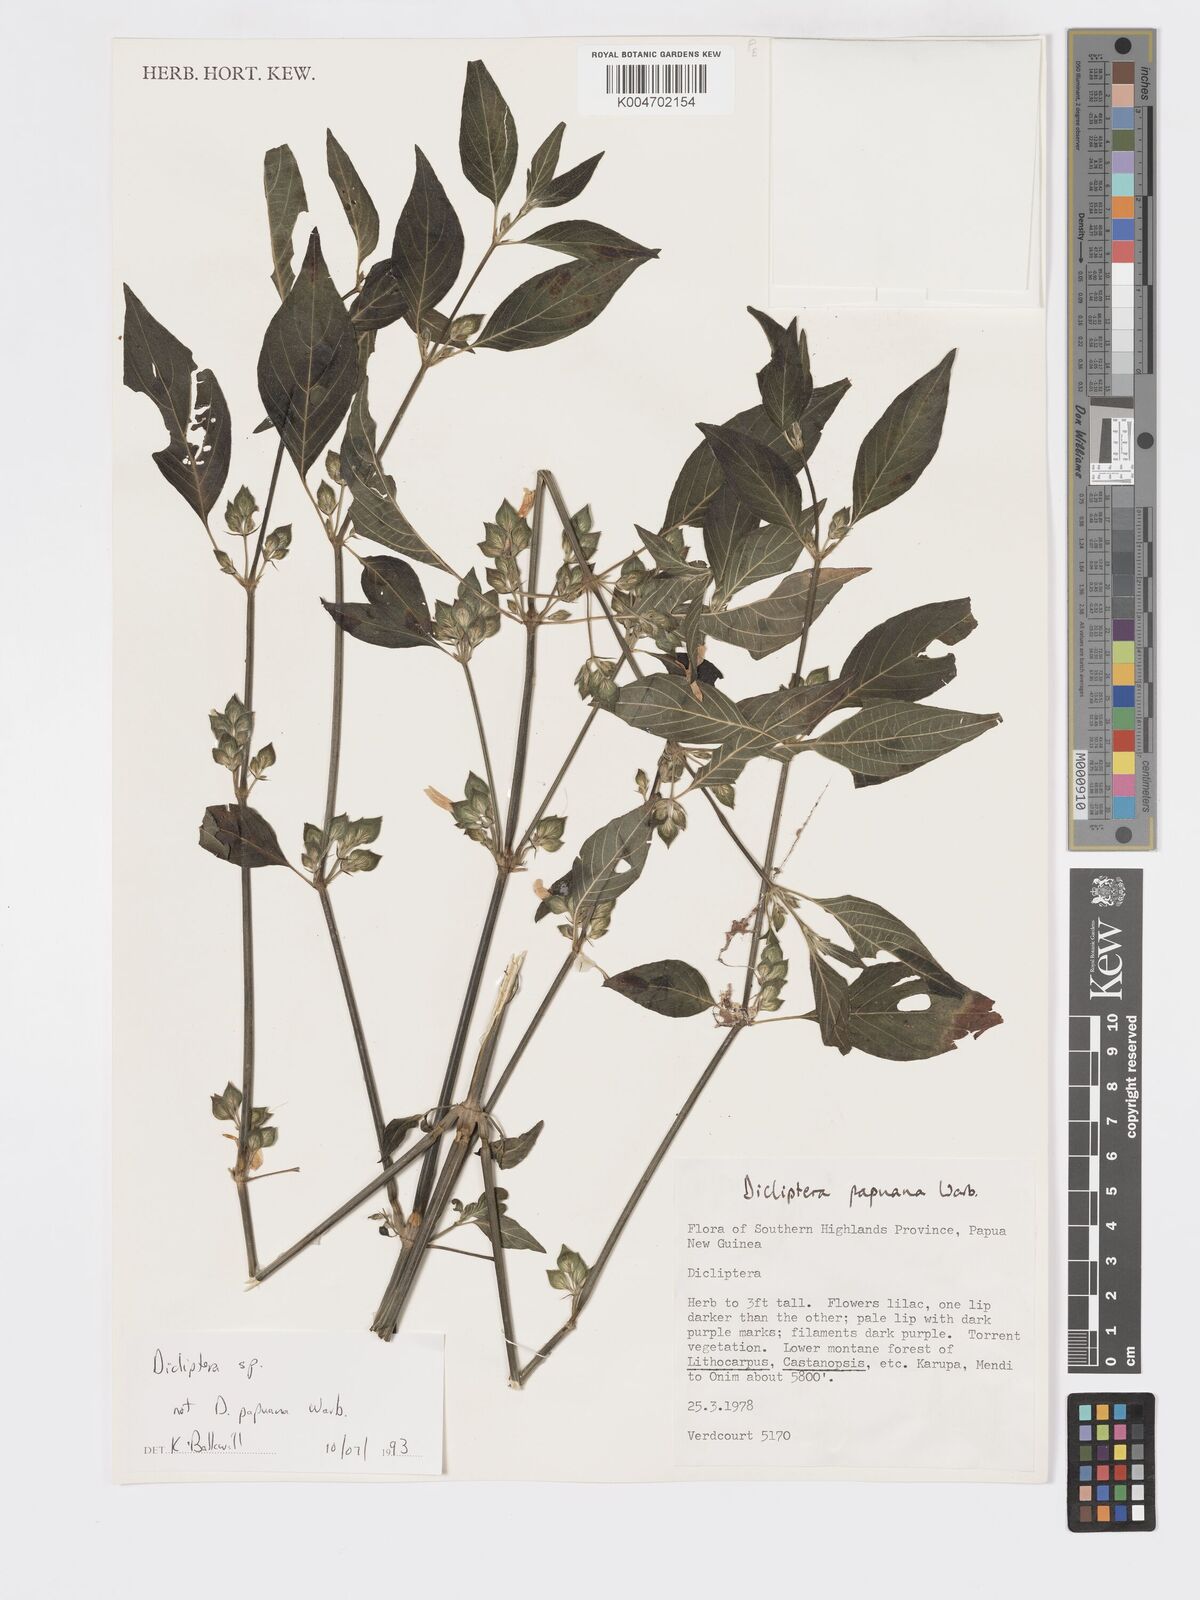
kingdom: Plantae
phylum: Tracheophyta
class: Magnoliopsida
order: Lamiales
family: Acanthaceae
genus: Dicliptera
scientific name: Dicliptera
